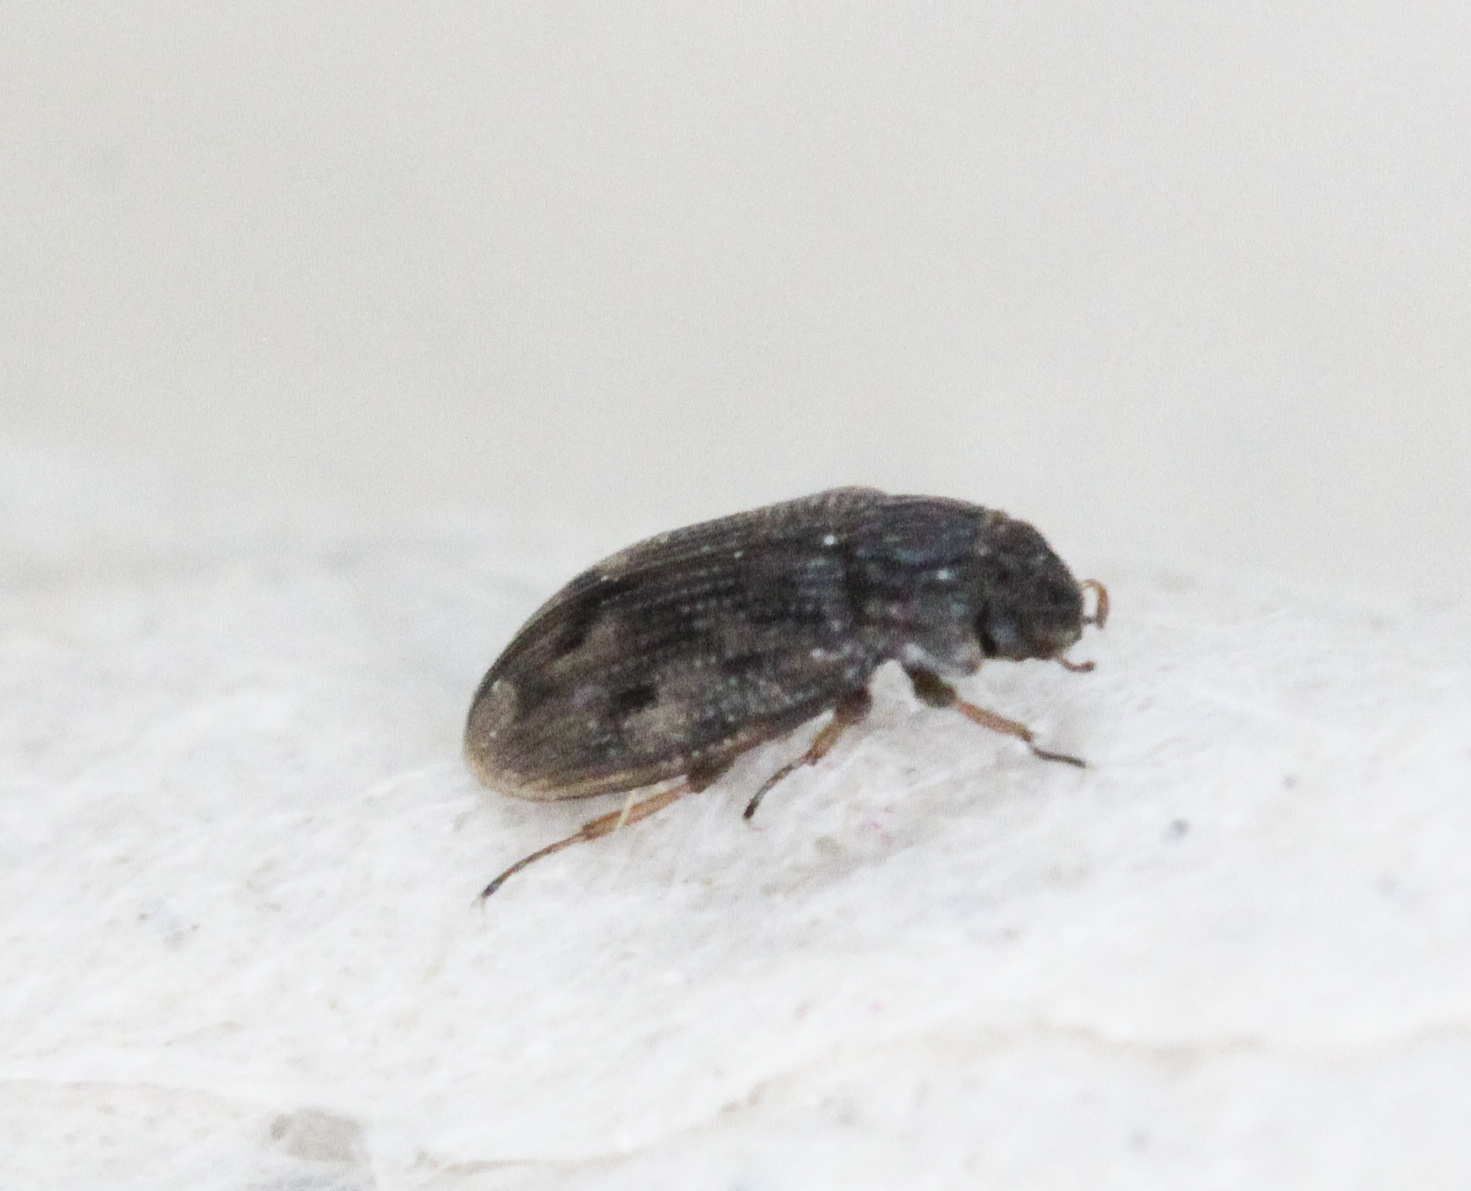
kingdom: Animalia
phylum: Arthropoda
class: Insecta
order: Coleoptera
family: Helophoridae
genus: Helophorus
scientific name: Helophorus
